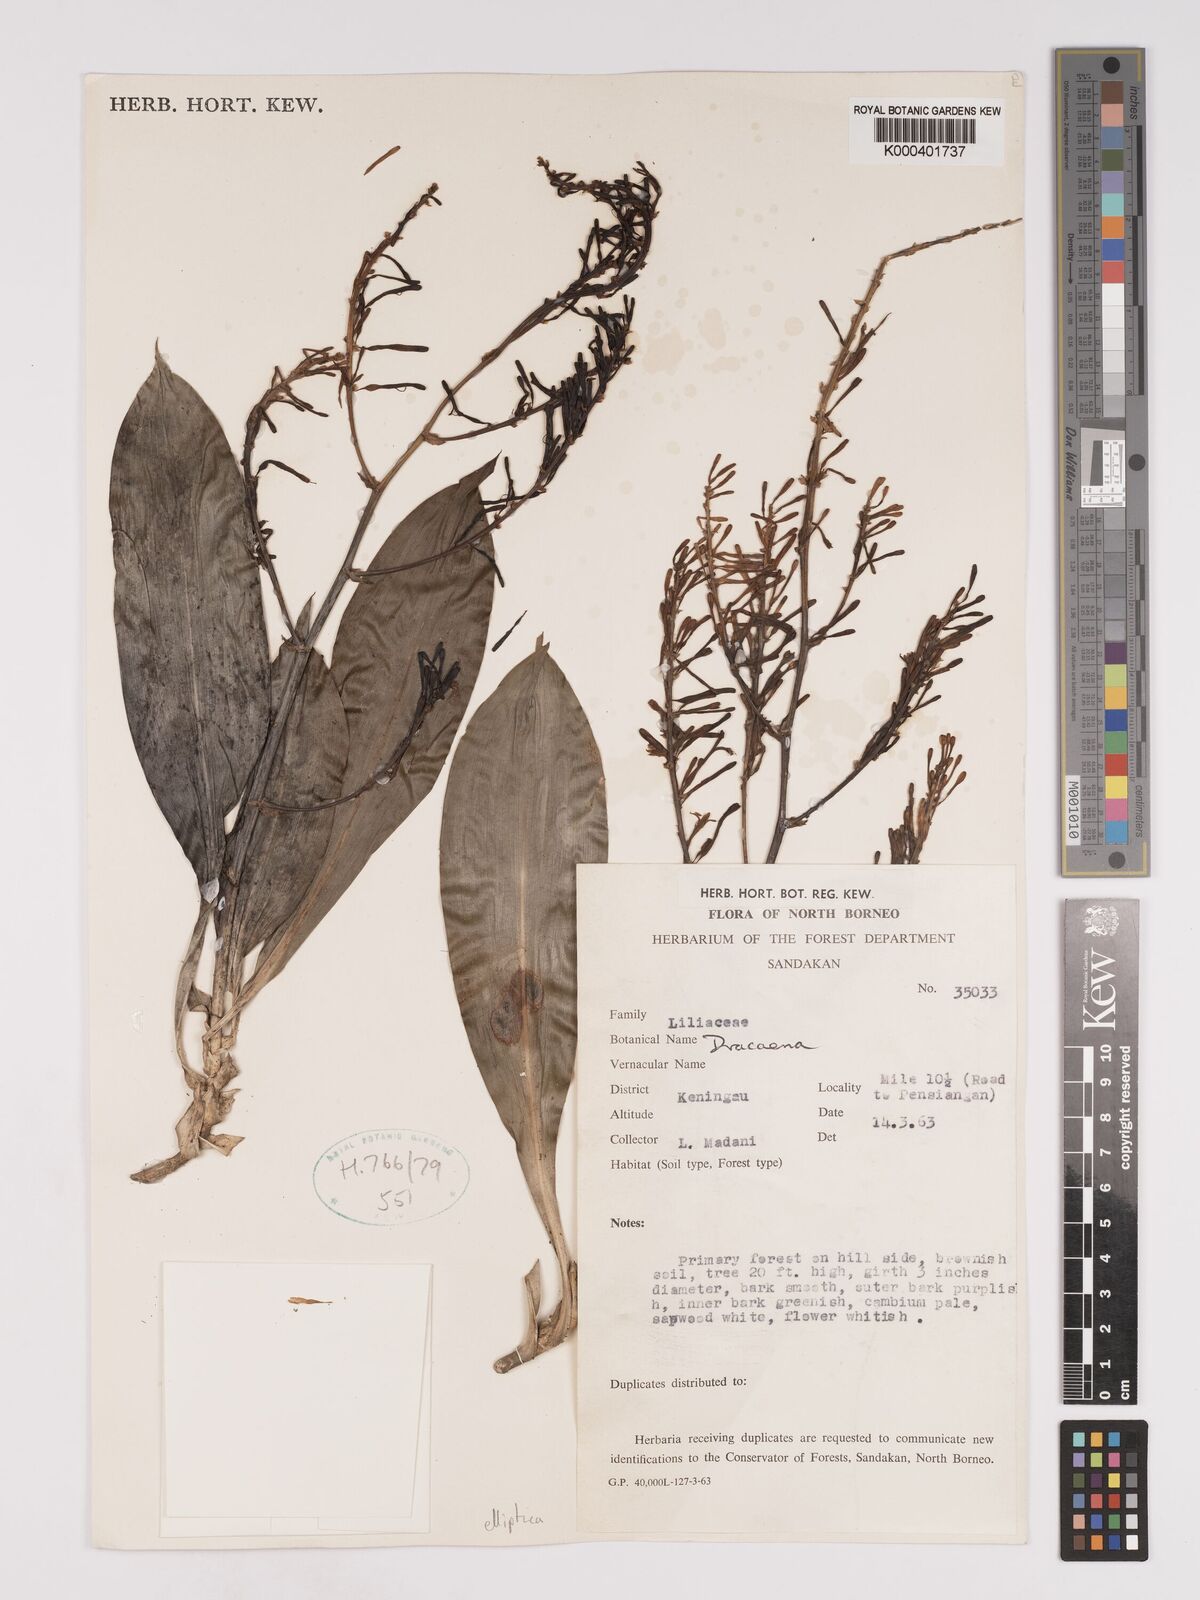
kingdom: Plantae
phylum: Tracheophyta
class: Liliopsida
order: Asparagales
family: Asparagaceae
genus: Dracaena
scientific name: Dracaena elliptica
